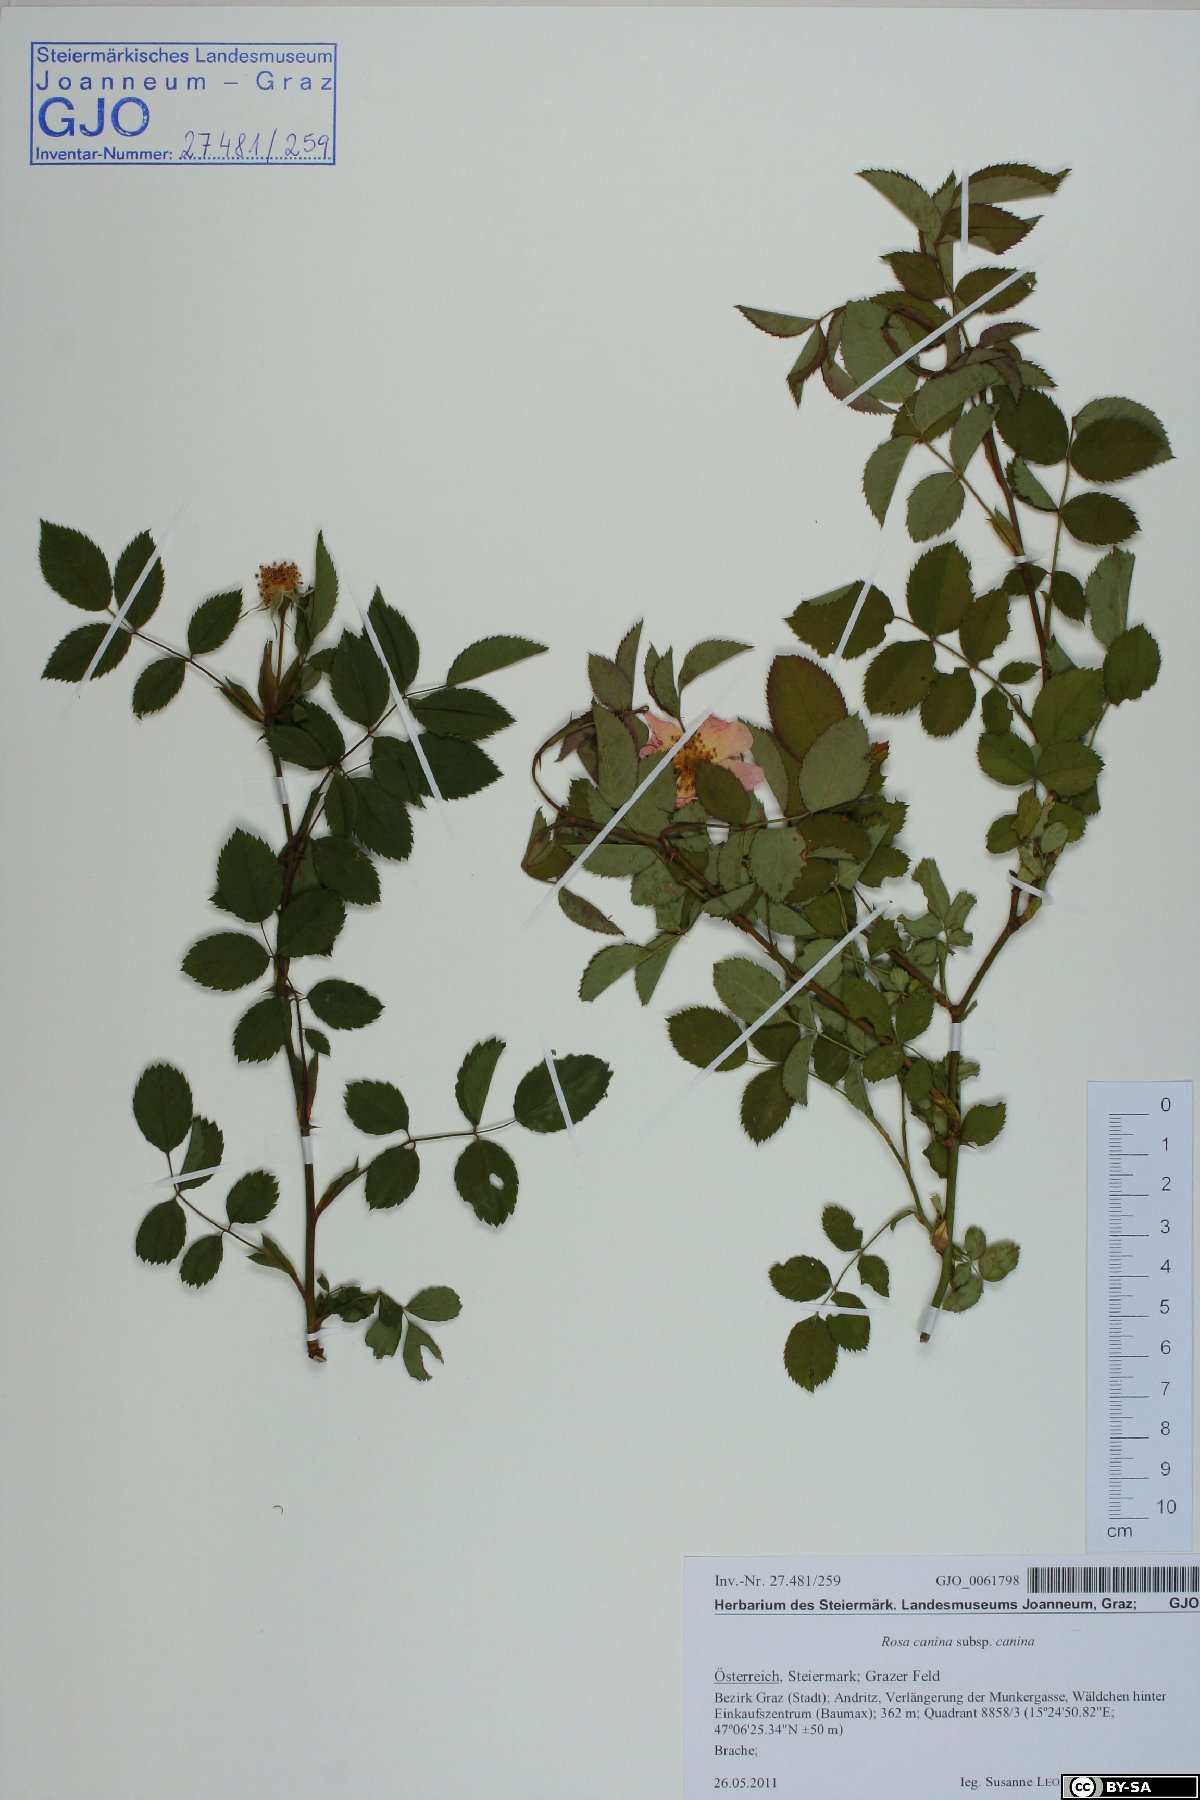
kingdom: Plantae
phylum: Tracheophyta
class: Magnoliopsida
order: Rosales
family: Rosaceae
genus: Rosa
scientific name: Rosa canina
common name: Dog rose
